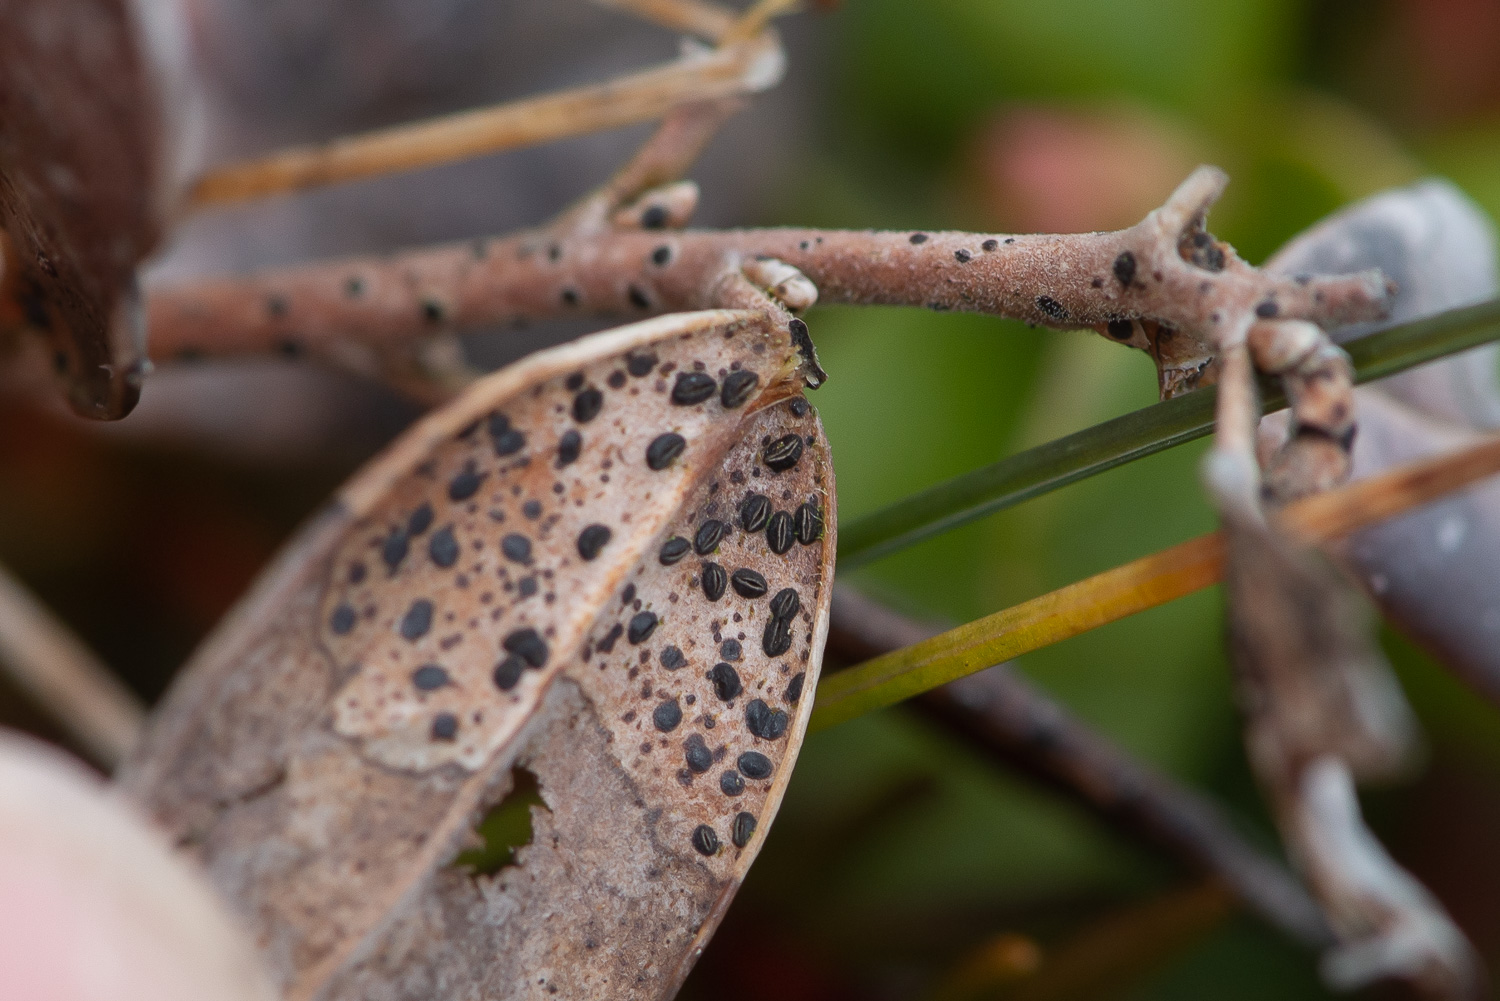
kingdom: Fungi
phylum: Ascomycota
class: Leotiomycetes
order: Rhytismatales
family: Rhytismataceae
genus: Lophodermium
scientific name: Lophodermium melaleucum
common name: tyttebær-fureplet
